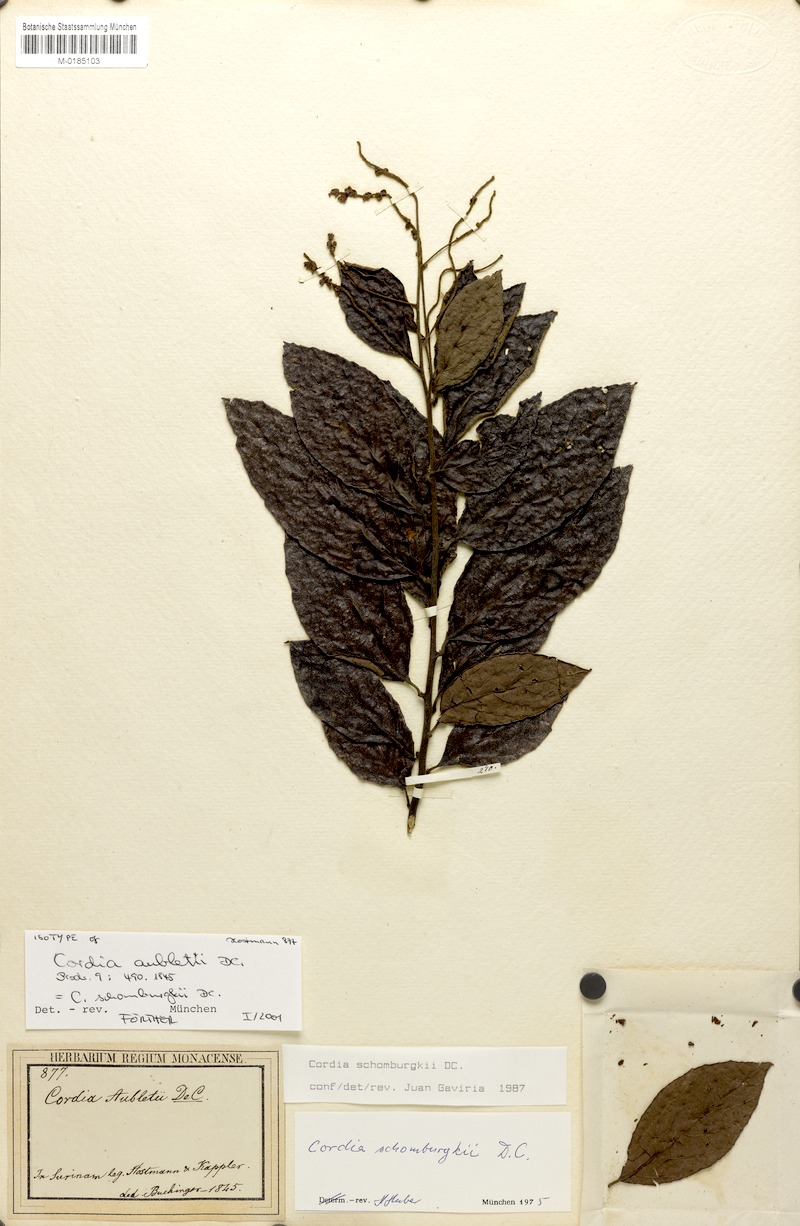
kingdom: Plantae
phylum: Tracheophyta
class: Magnoliopsida
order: Boraginales
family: Cordiaceae
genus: Varronia
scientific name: Varronia schomburgkii
